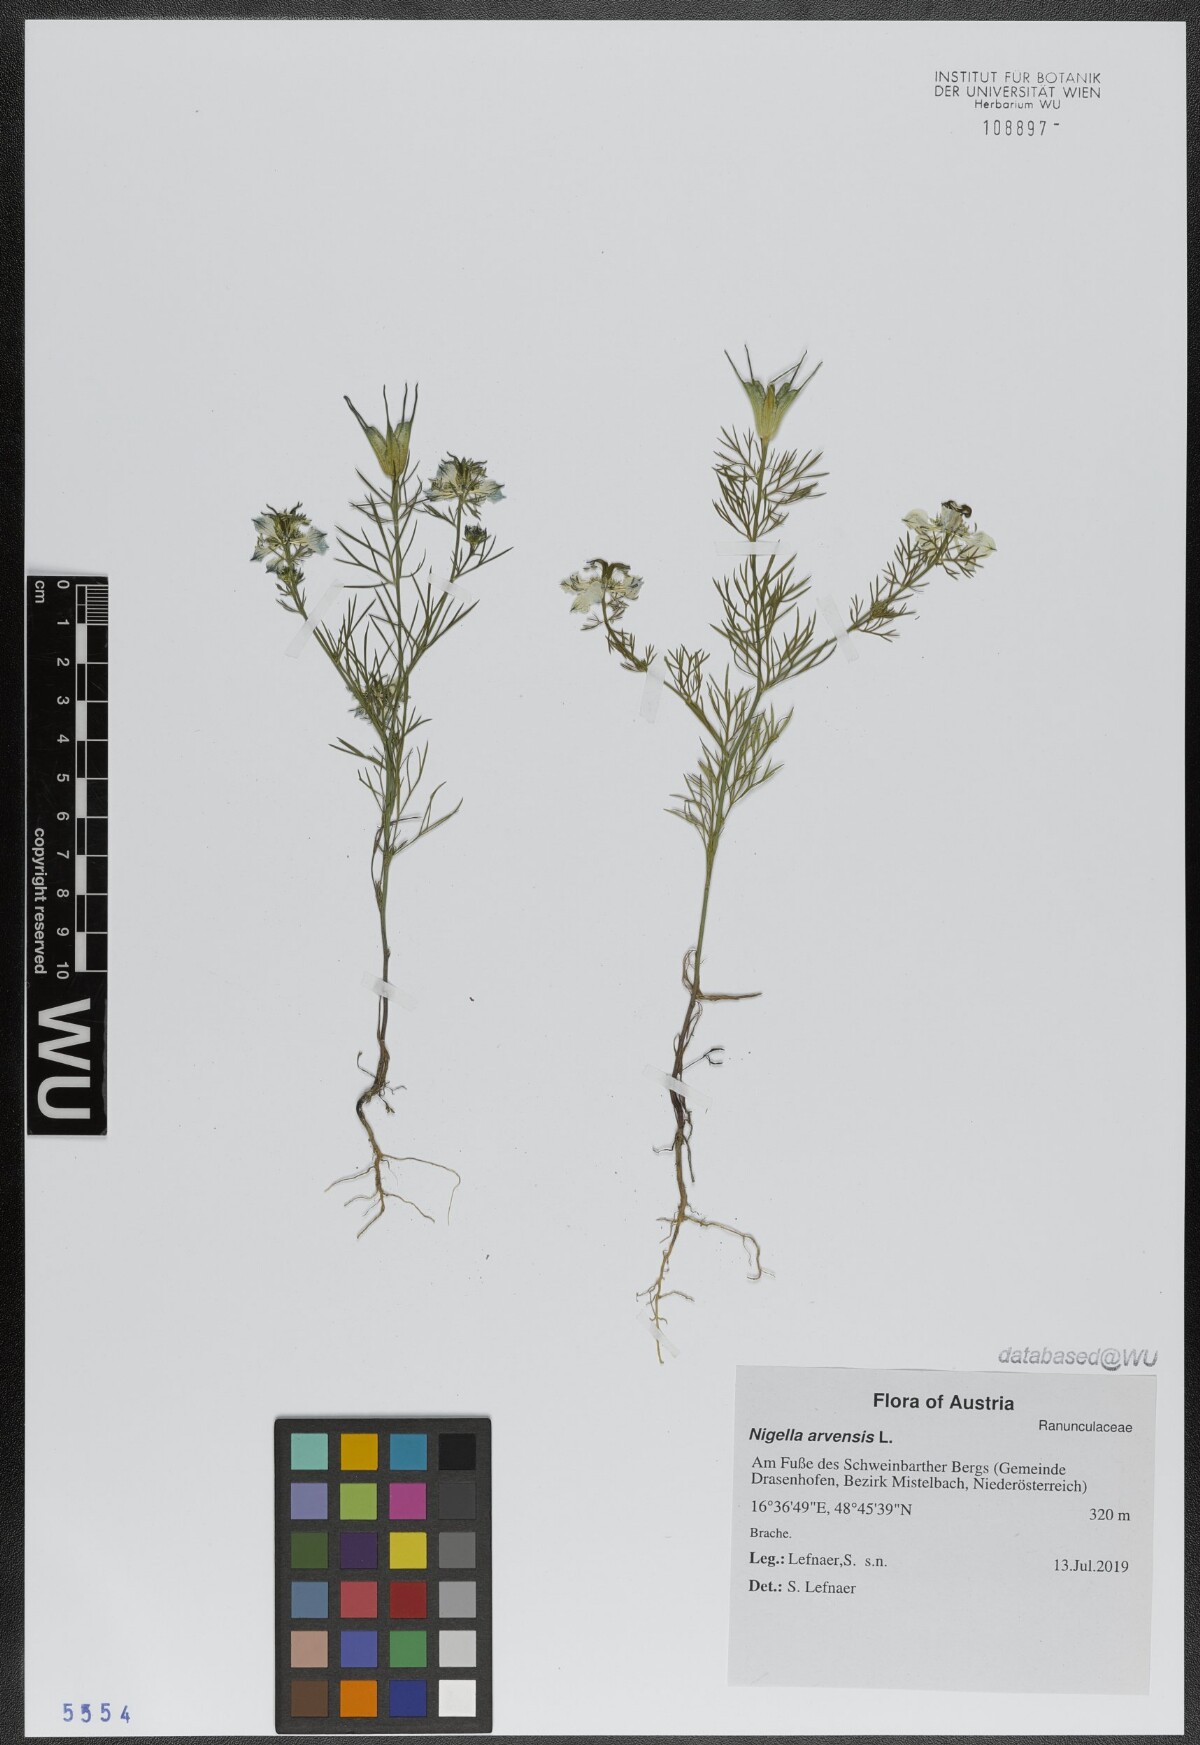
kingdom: Plantae
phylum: Tracheophyta
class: Magnoliopsida
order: Ranunculales
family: Ranunculaceae
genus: Nigella
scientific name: Nigella arvensis
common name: Wild fennel-flower
